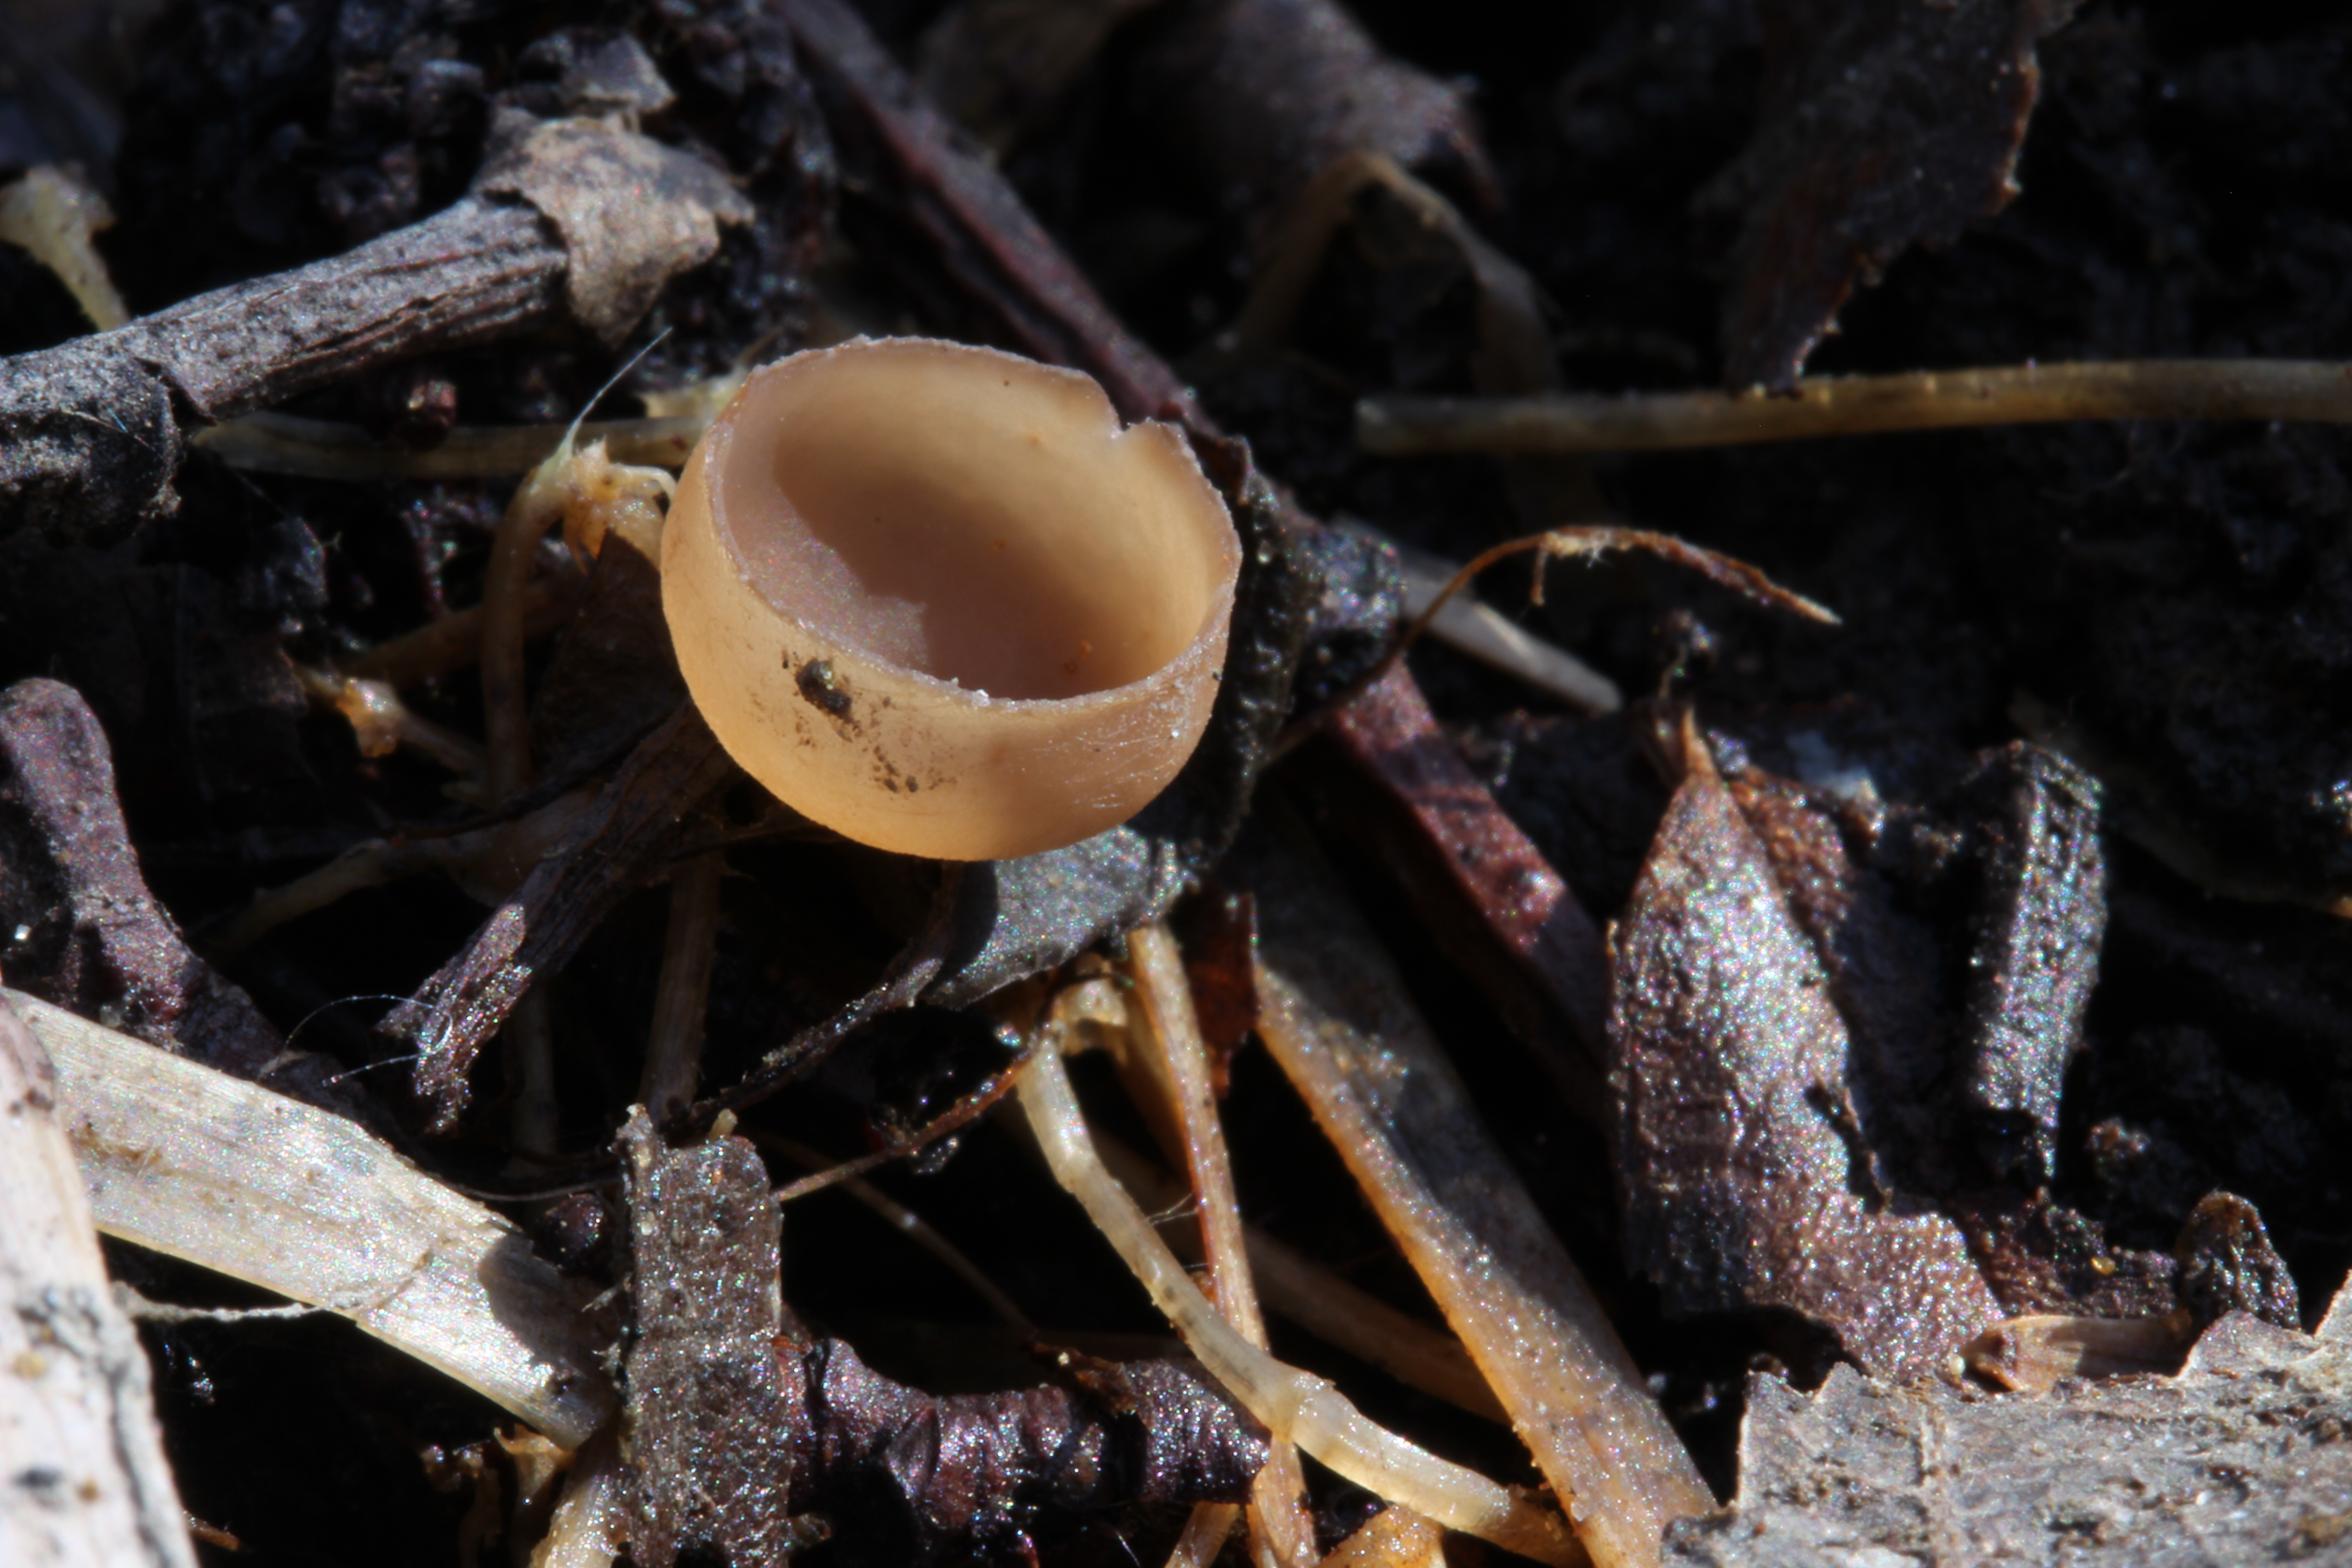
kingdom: Fungi
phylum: Ascomycota
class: Leotiomycetes
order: Helotiales
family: Sclerotiniaceae
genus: Ciboria
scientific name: Ciboria amentacea
